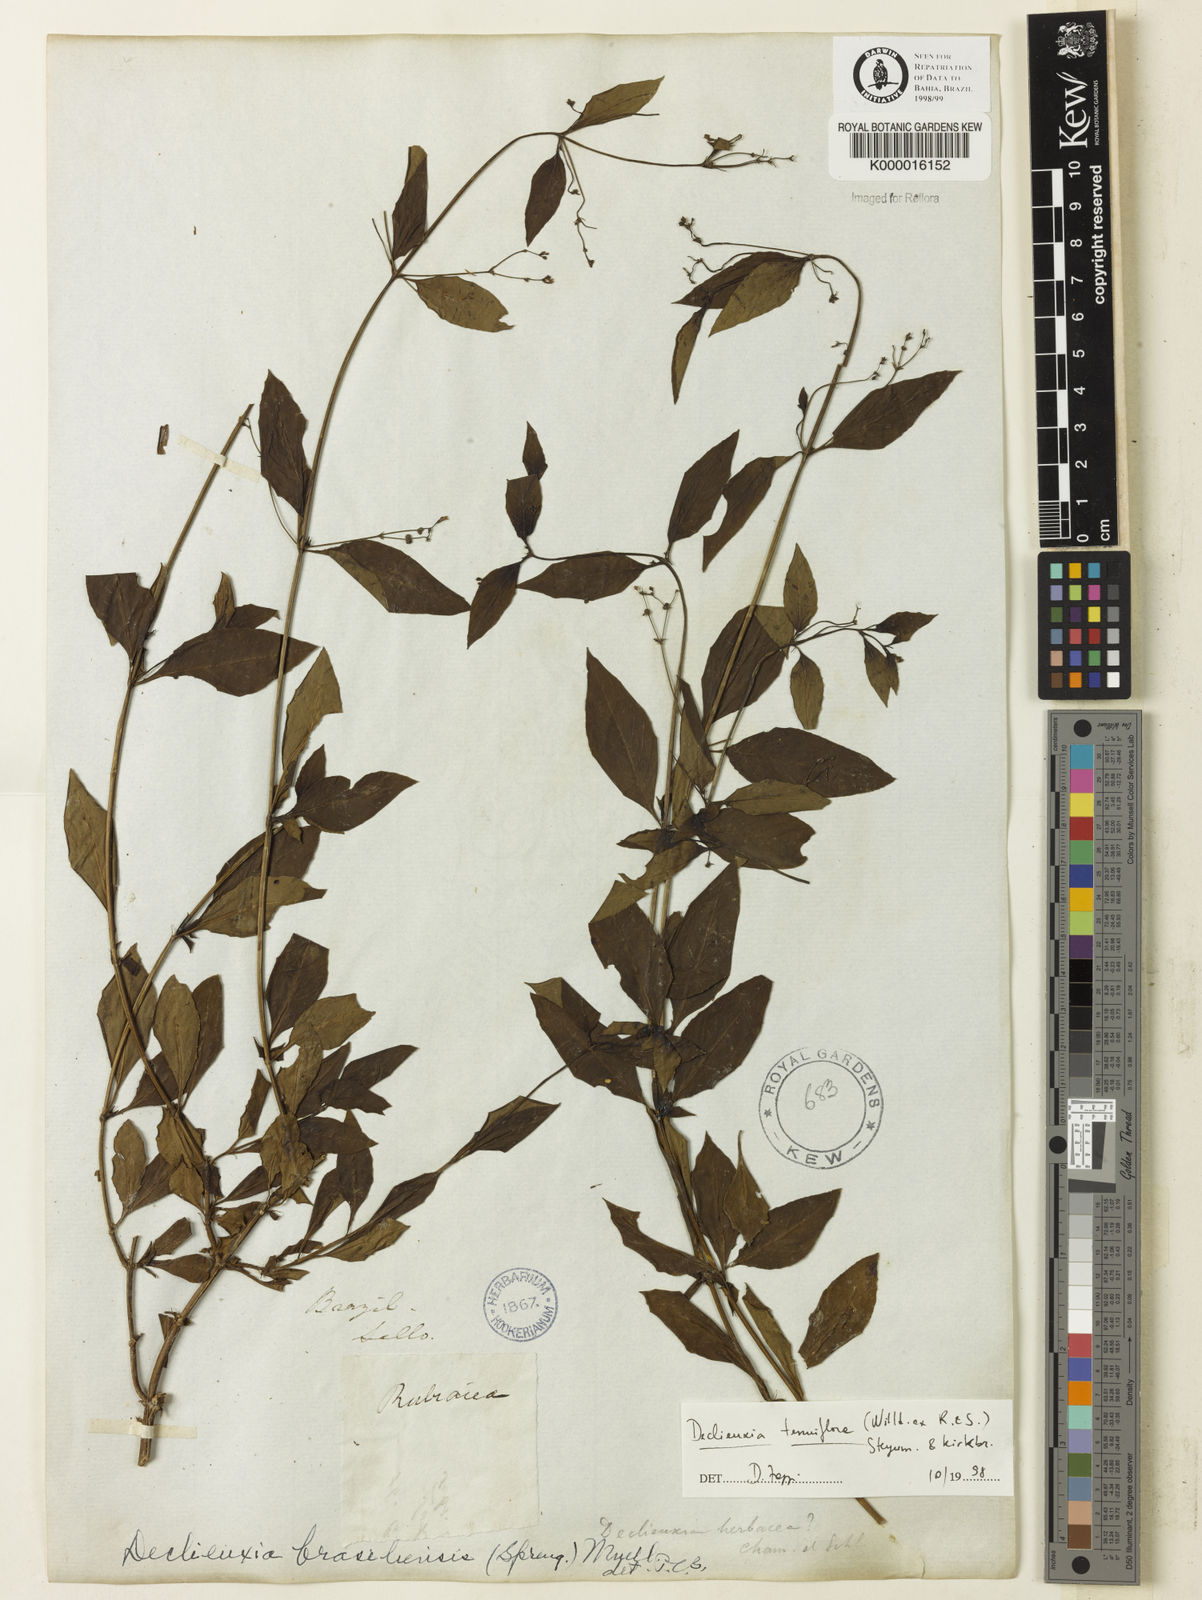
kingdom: Plantae
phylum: Tracheophyta
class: Magnoliopsida
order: Gentianales
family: Rubiaceae
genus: Declieuxia
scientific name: Declieuxia tenuiflora
